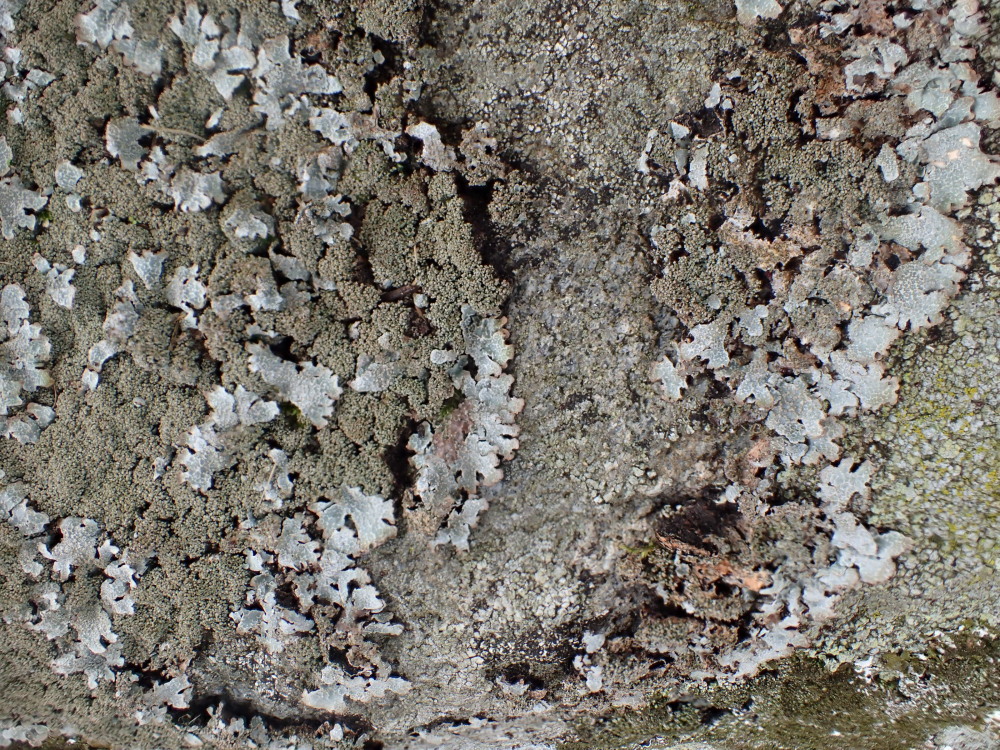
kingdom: Fungi
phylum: Ascomycota
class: Lecanoromycetes
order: Lecanorales
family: Parmeliaceae
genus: Parmelia
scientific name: Parmelia saxatilis
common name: farve-skållav
